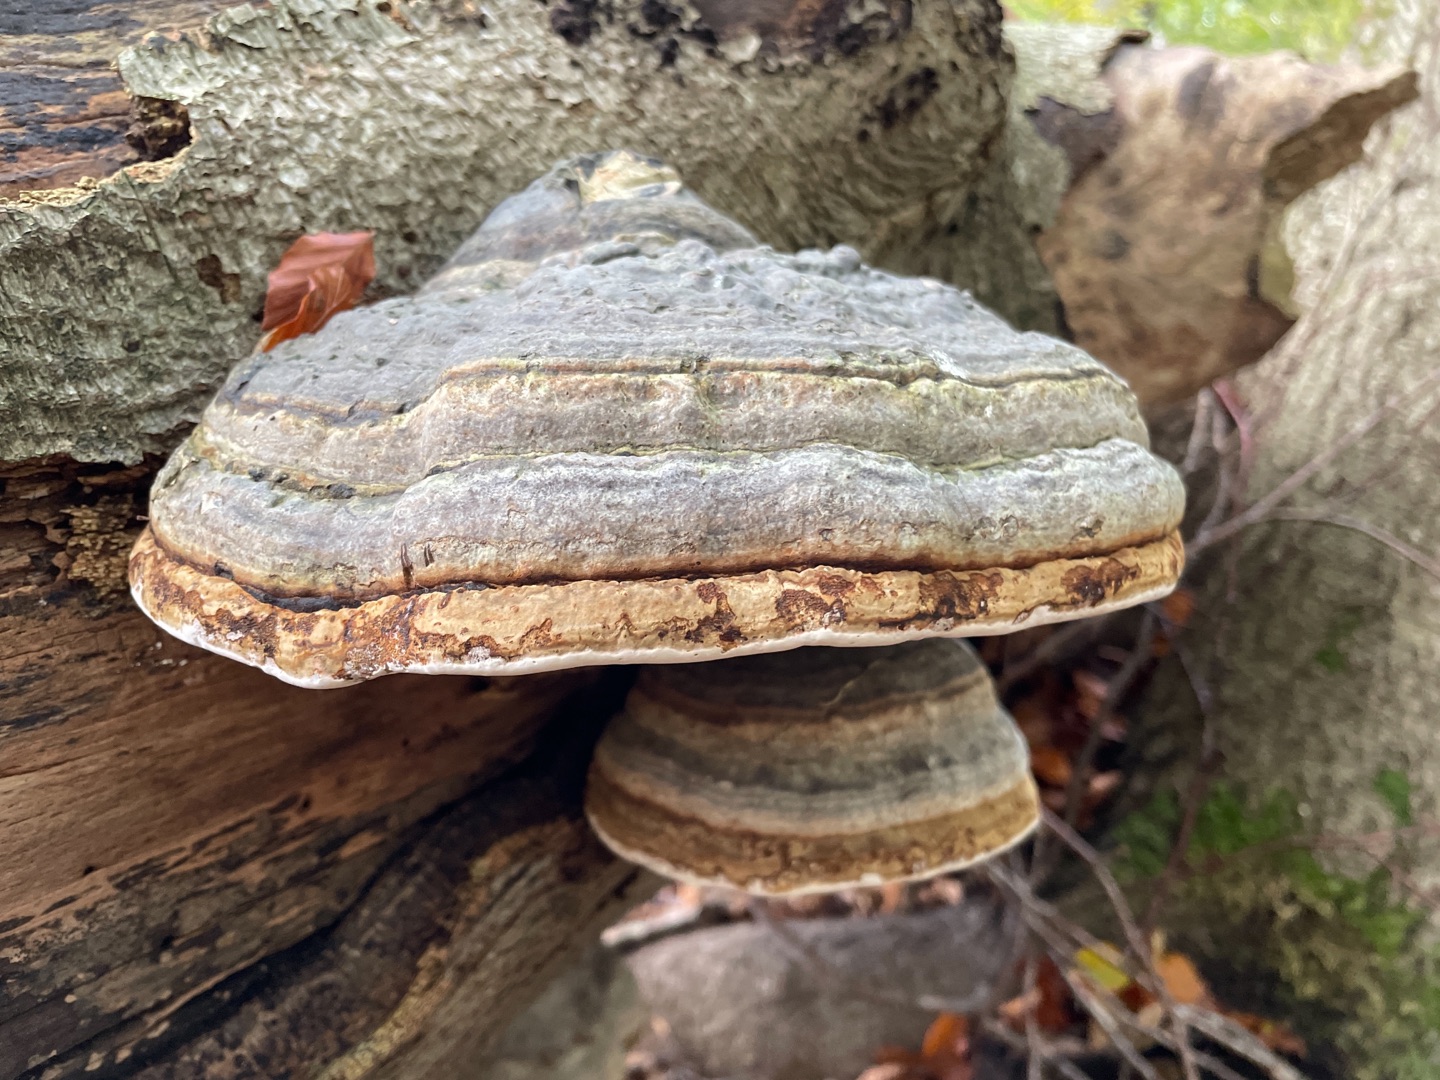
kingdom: Fungi
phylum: Basidiomycota
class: Agaricomycetes
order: Polyporales
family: Polyporaceae
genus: Fomes
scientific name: Fomes fomentarius
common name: Tøndersvamp
